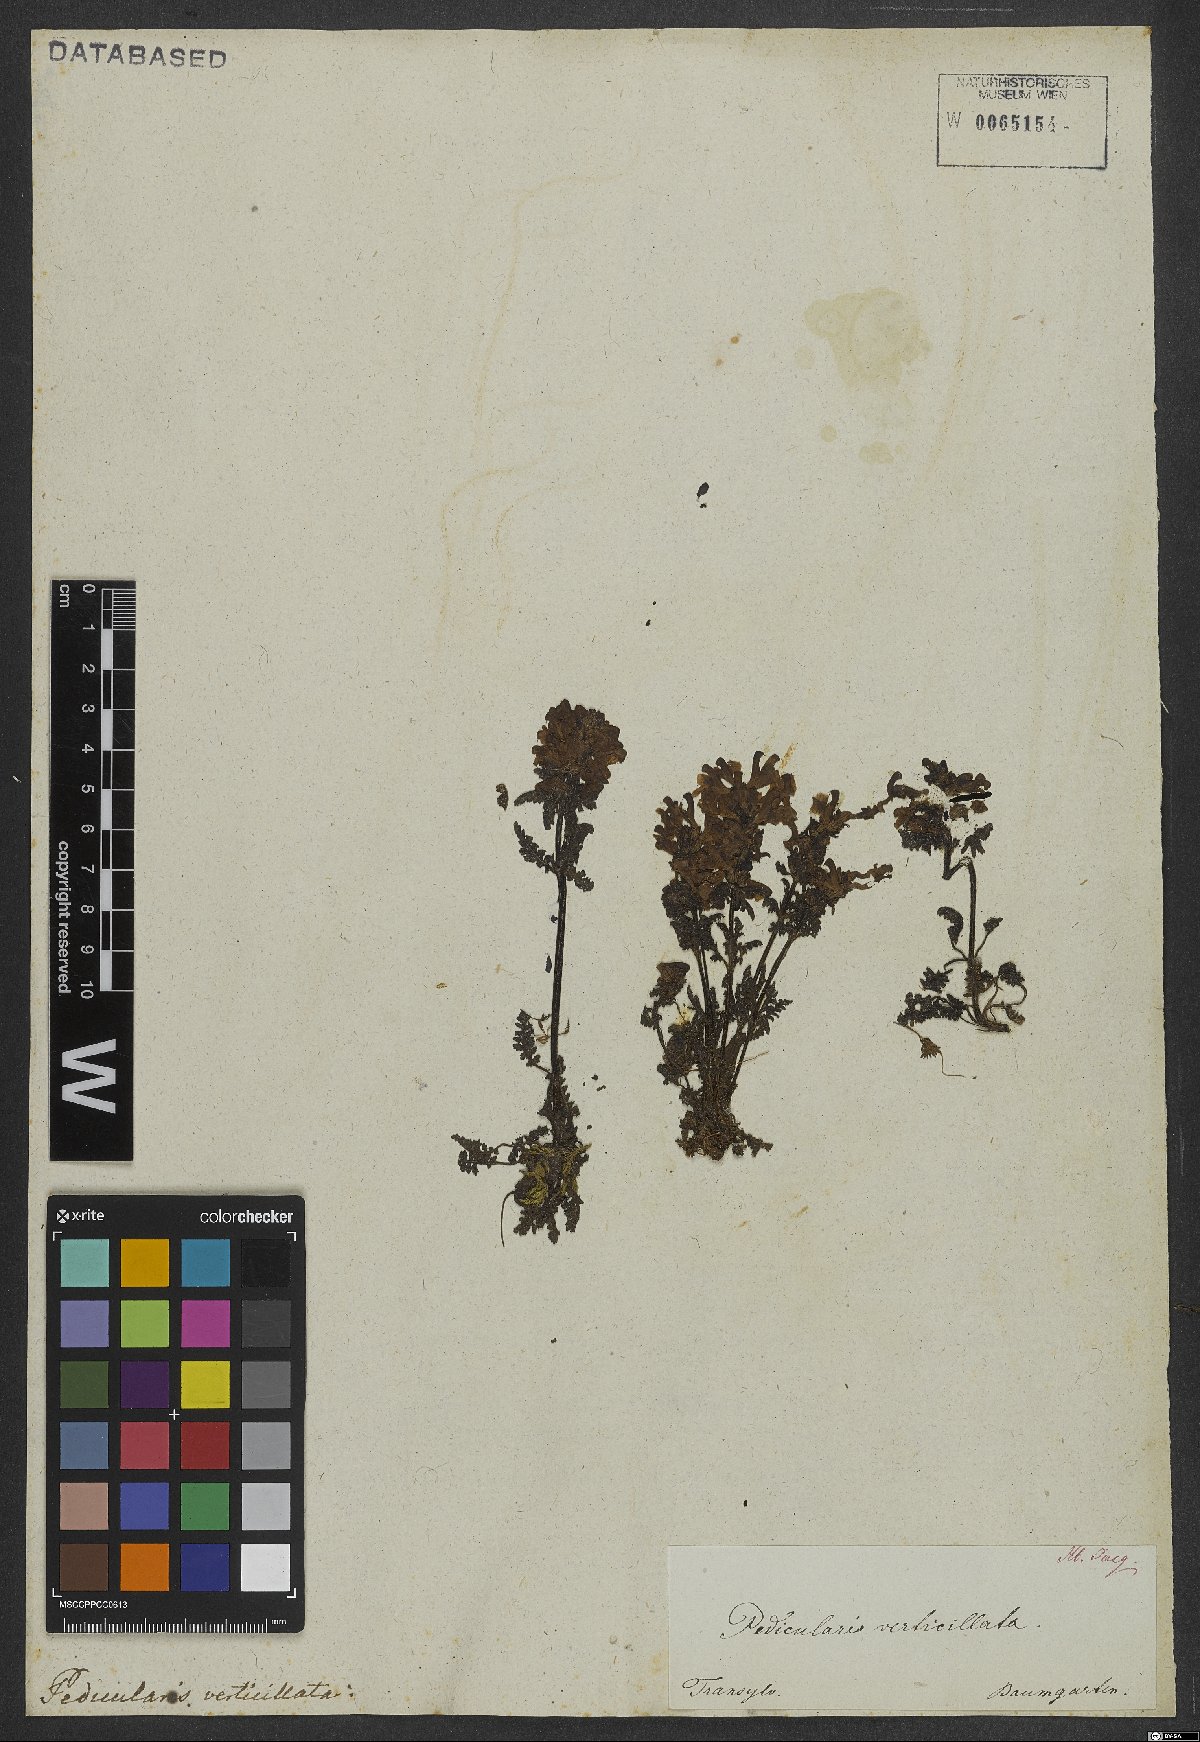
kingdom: Plantae
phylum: Tracheophyta
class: Magnoliopsida
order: Lamiales
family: Orobanchaceae
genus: Pedicularis
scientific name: Pedicularis verticillata
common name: Whorled lousewort
